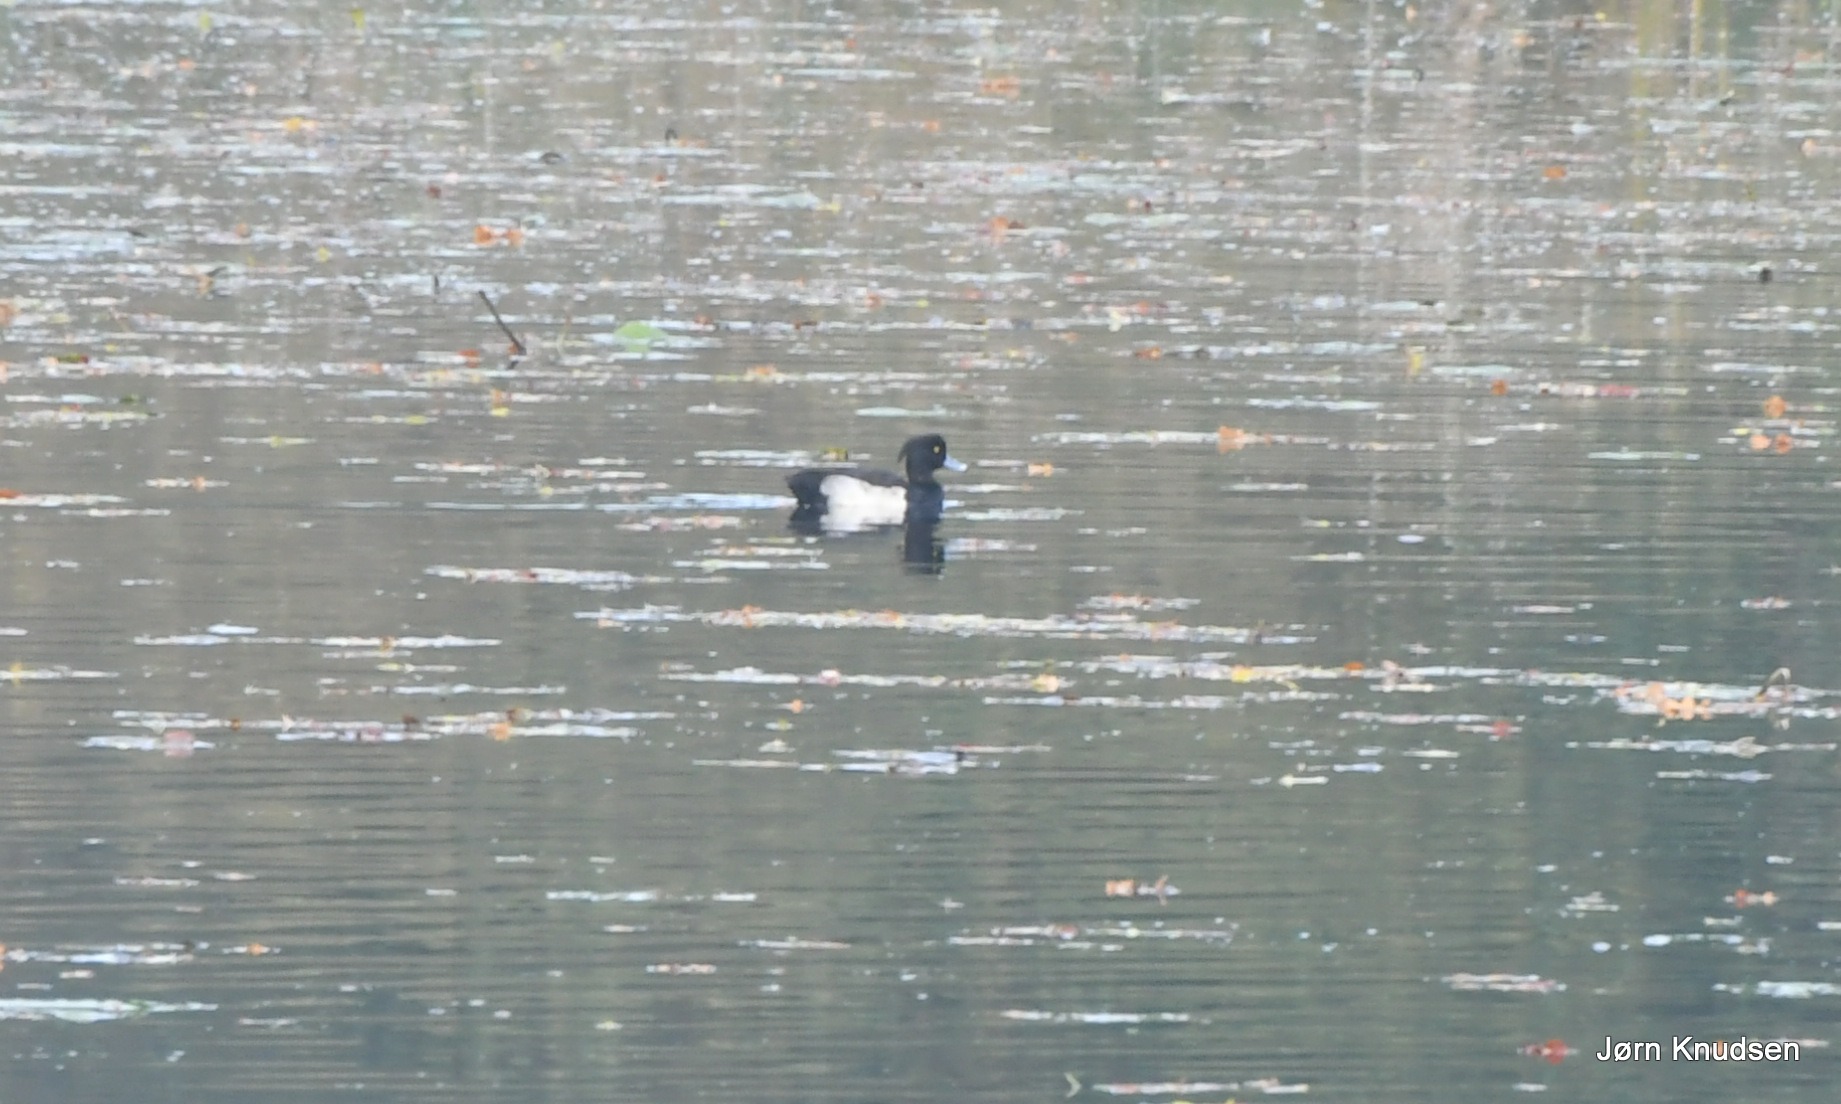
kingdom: Animalia
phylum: Chordata
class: Aves
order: Anseriformes
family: Anatidae
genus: Aythya
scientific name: Aythya fuligula
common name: Troldand
